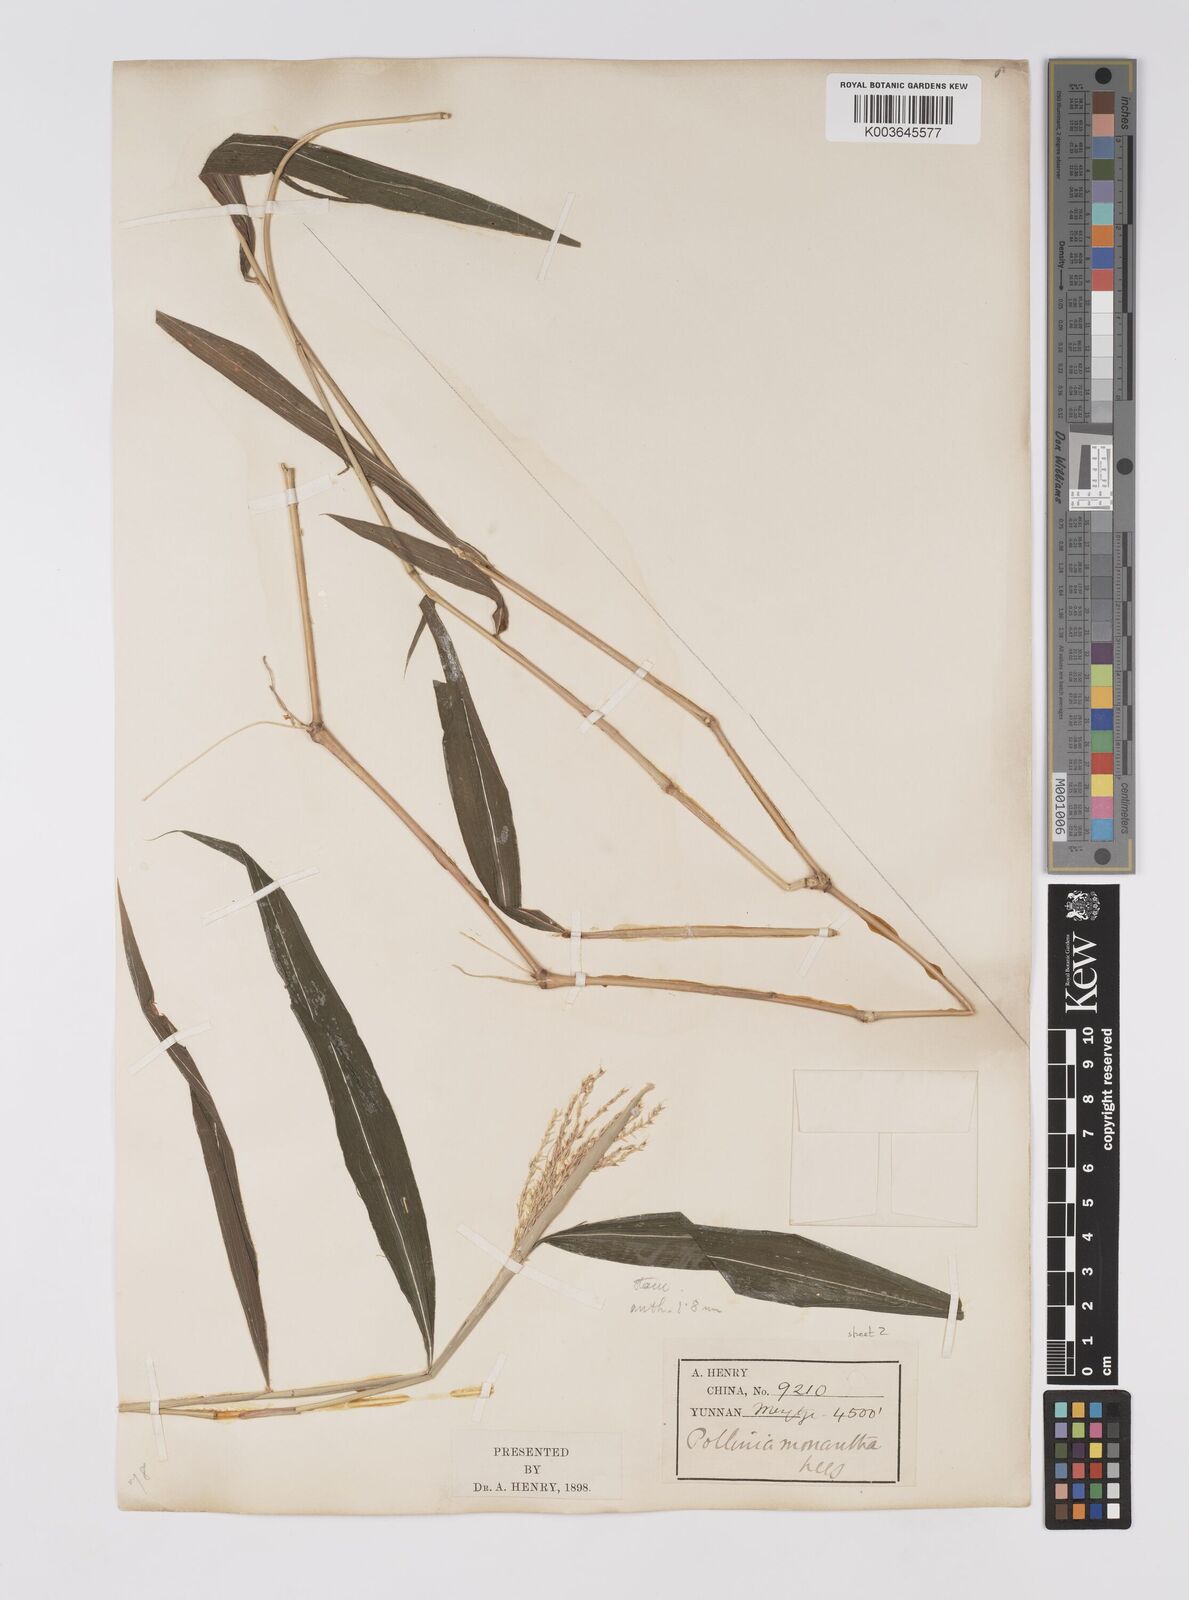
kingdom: Plantae
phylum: Tracheophyta
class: Liliopsida
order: Poales
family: Poaceae
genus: Microstegium
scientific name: Microstegium fasciculatum
